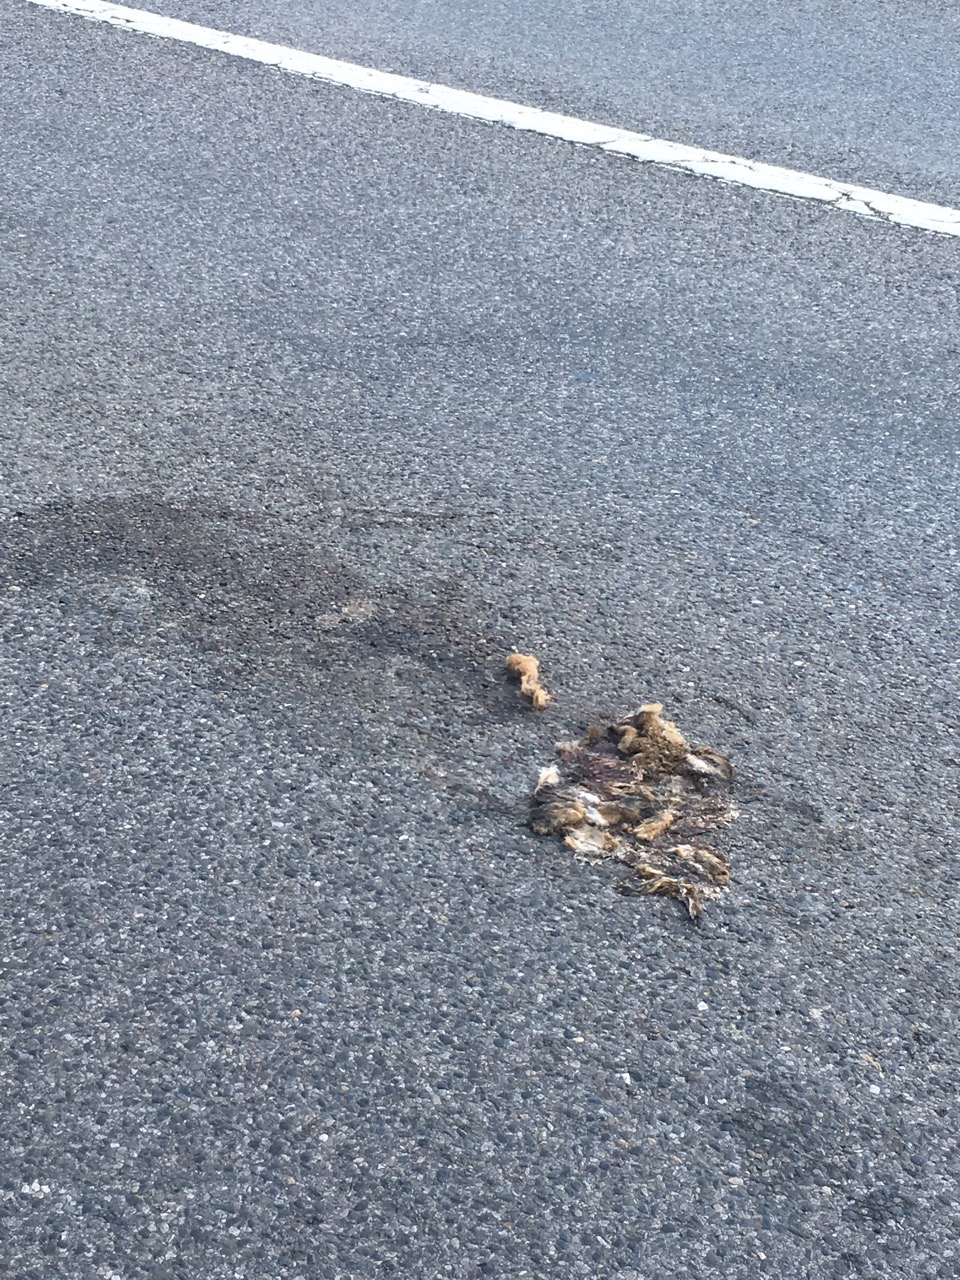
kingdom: Animalia
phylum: Chordata
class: Mammalia
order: Lagomorpha
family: Leporidae
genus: Lepus
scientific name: Lepus europaeus
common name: European hare
